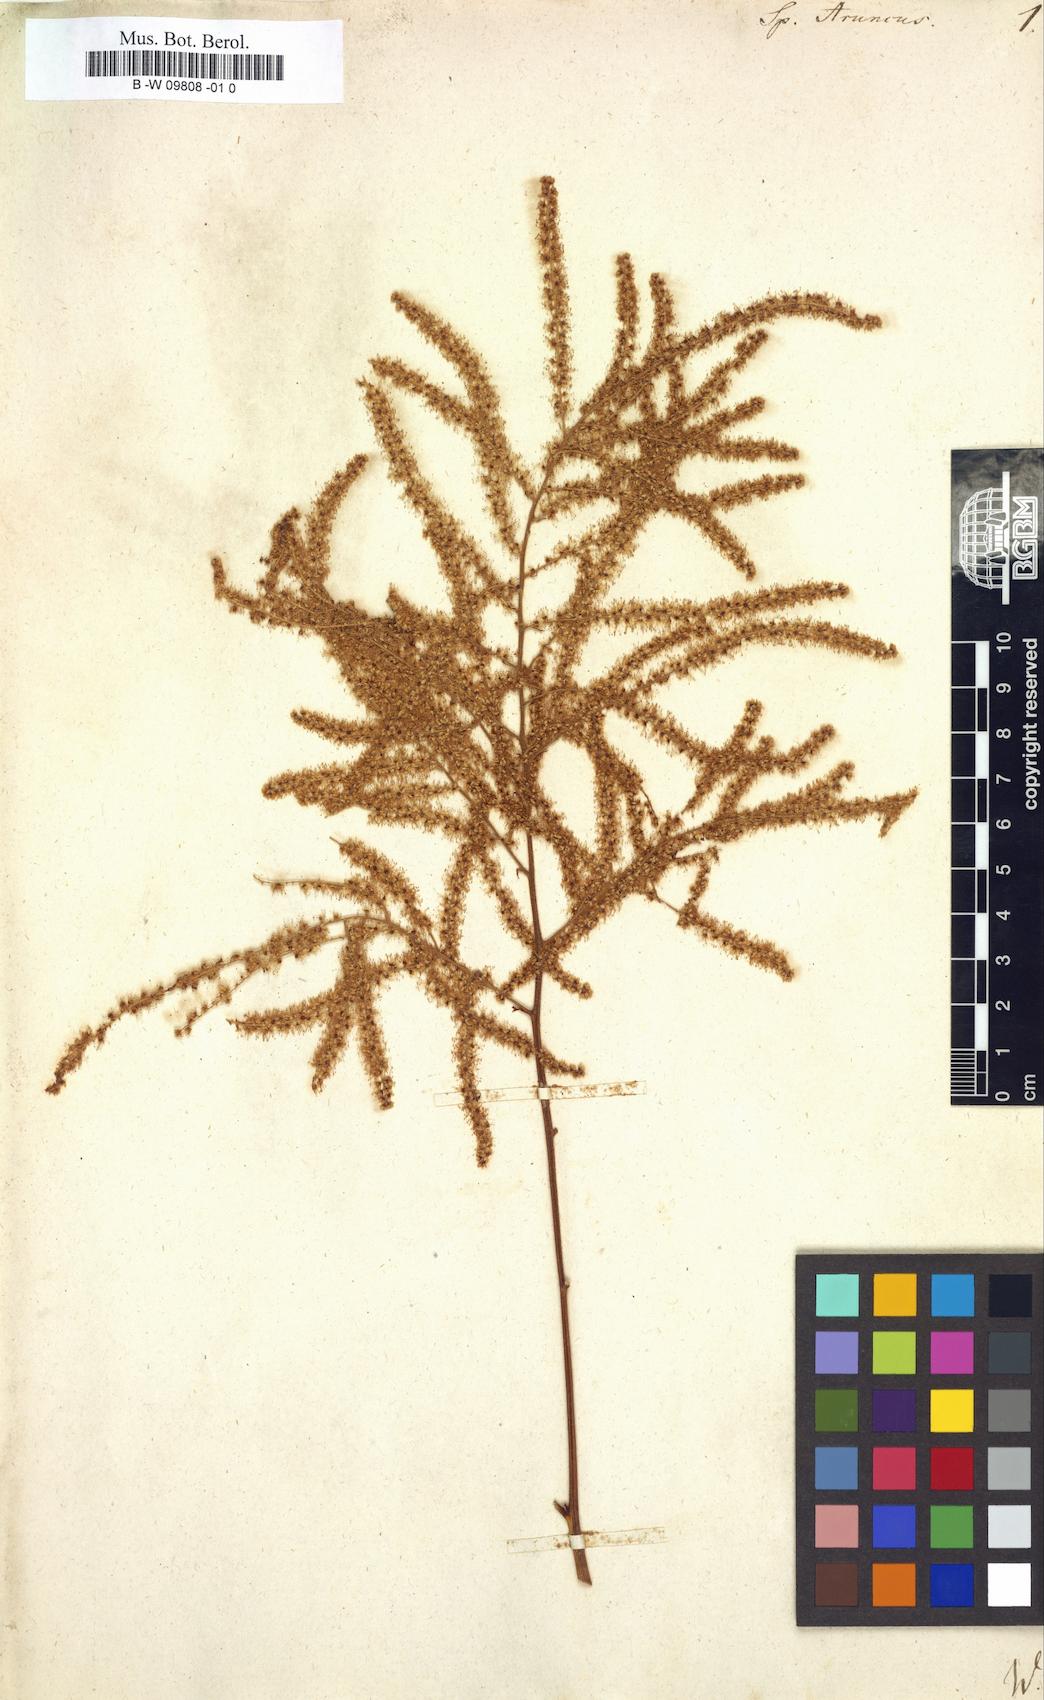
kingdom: Plantae
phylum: Tracheophyta
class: Magnoliopsida
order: Rosales
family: Rosaceae
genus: Aruncus
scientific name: Aruncus dioicus
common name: Buck's-beard
